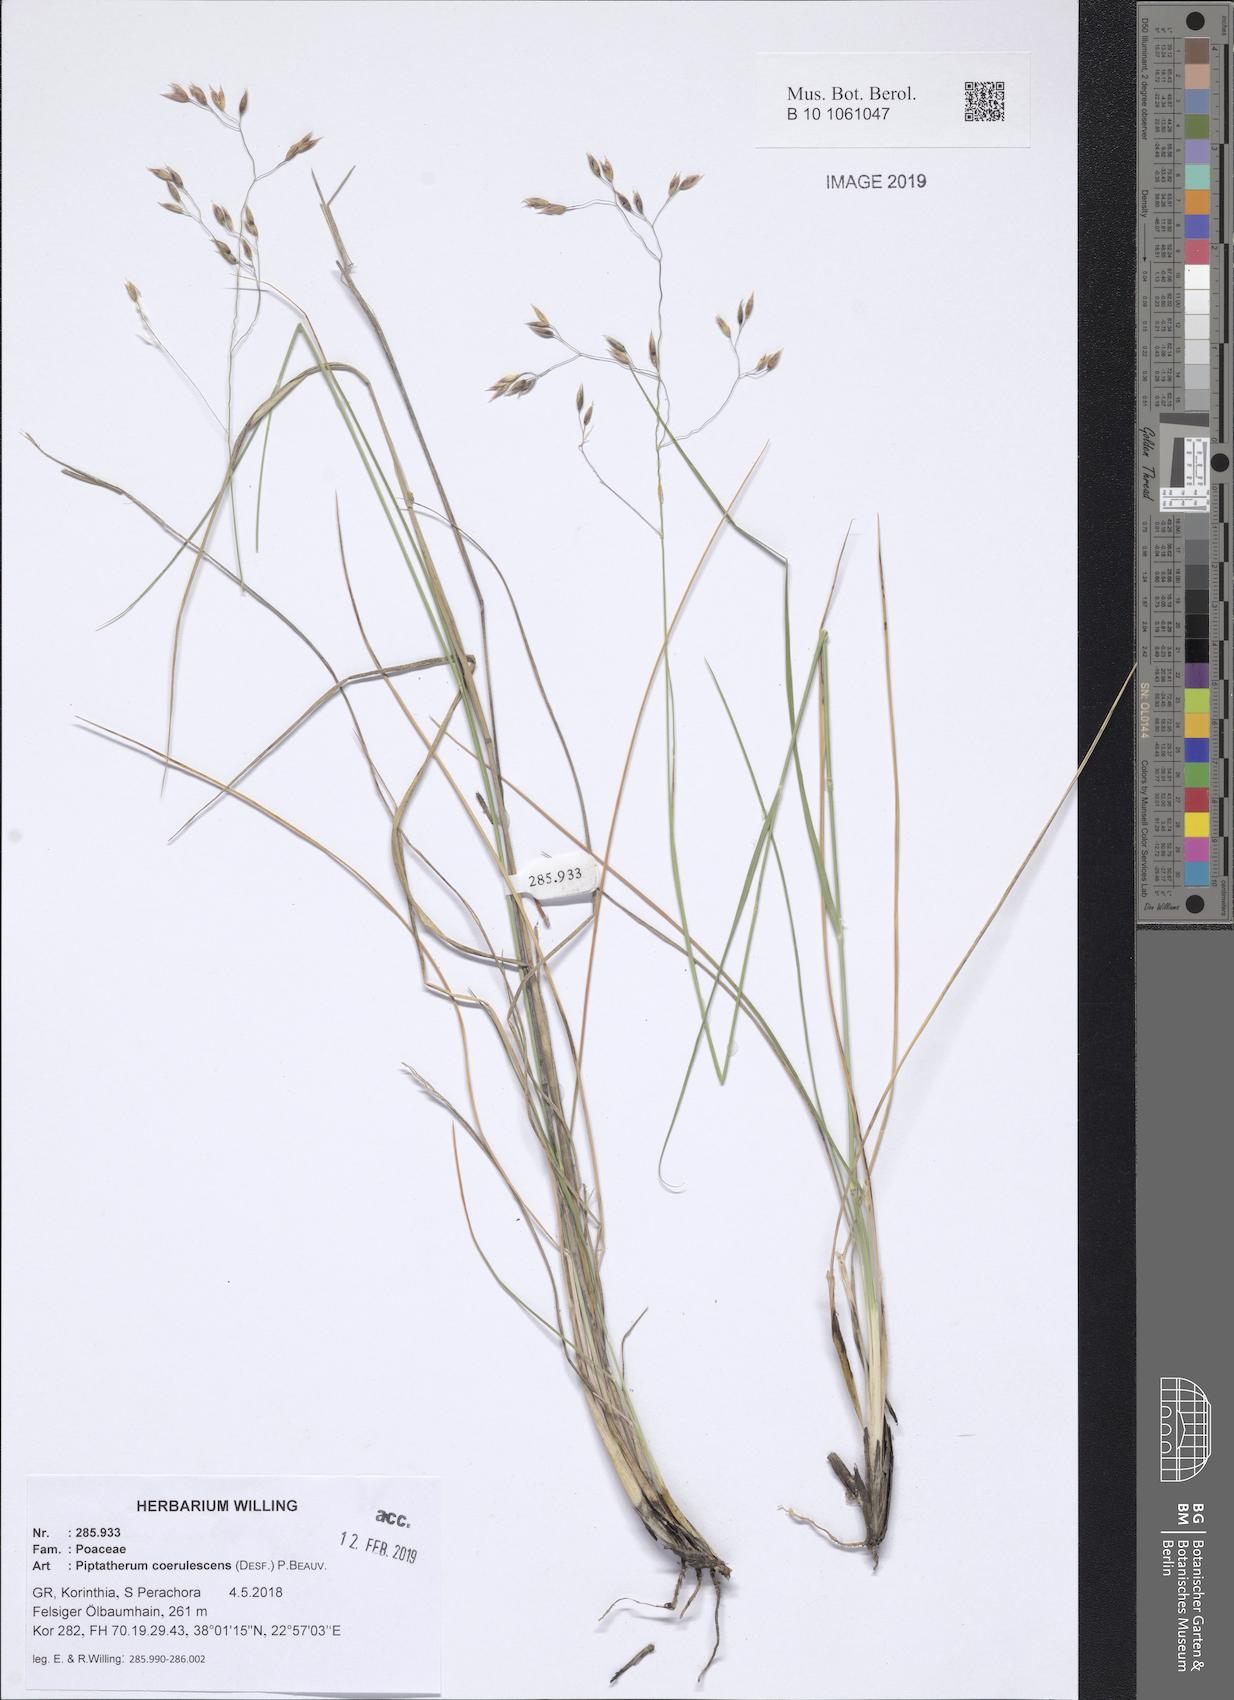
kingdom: Plantae
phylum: Tracheophyta
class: Liliopsida
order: Poales
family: Poaceae
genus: Piptatherum
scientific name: Piptatherum coerulescens
